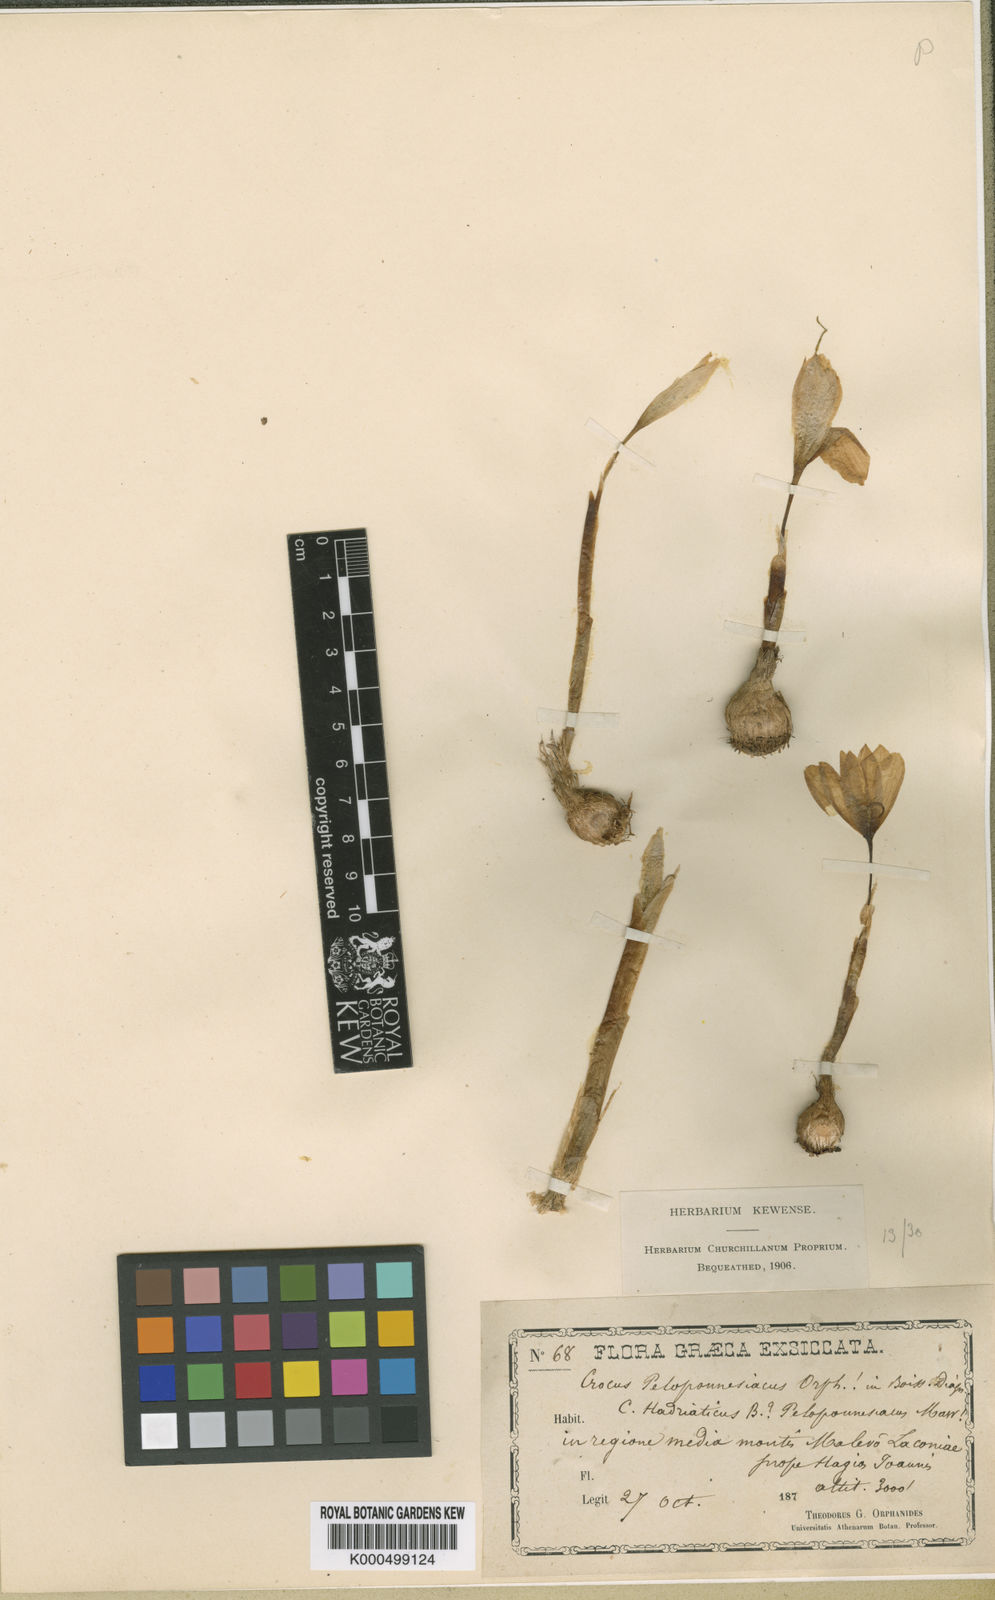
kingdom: Plantae
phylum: Tracheophyta
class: Liliopsida
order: Asparagales
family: Iridaceae
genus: Crocus
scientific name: Crocus hadriaticus
